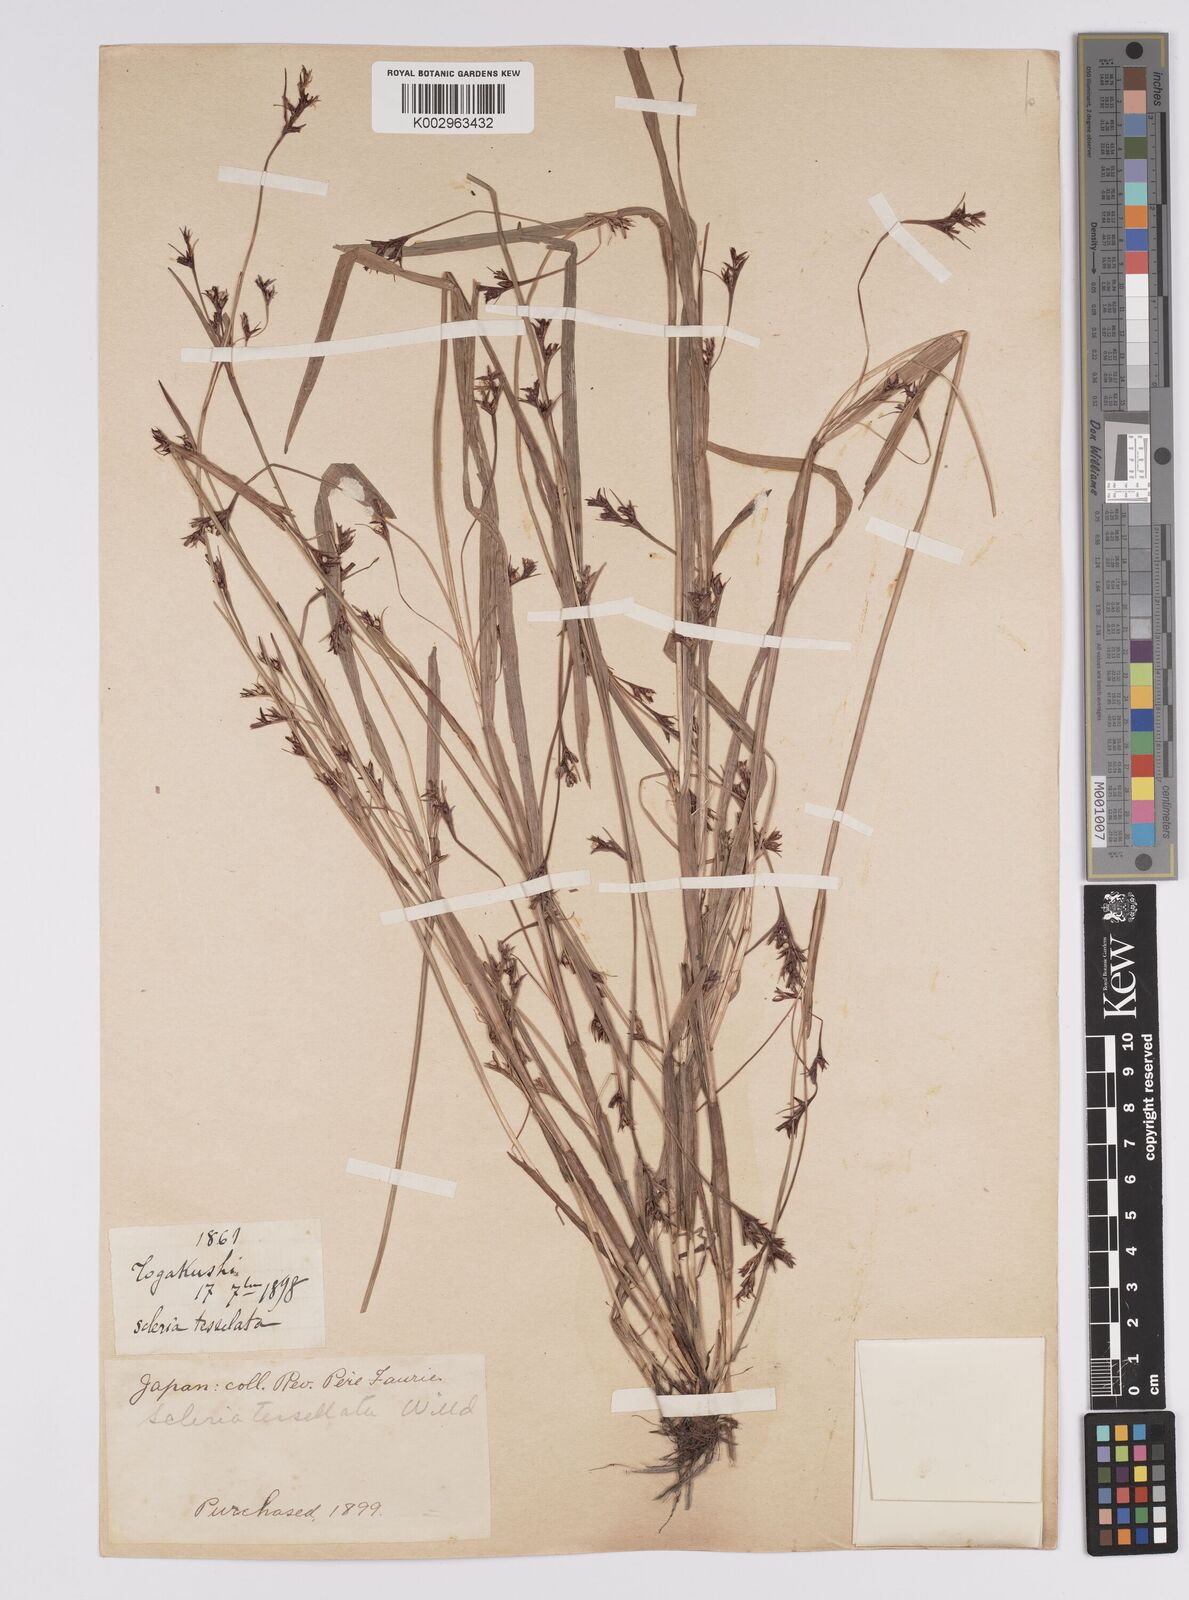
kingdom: Plantae
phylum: Tracheophyta
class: Liliopsida
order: Poales
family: Cyperaceae
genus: Scleria
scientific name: Scleria tessellata
